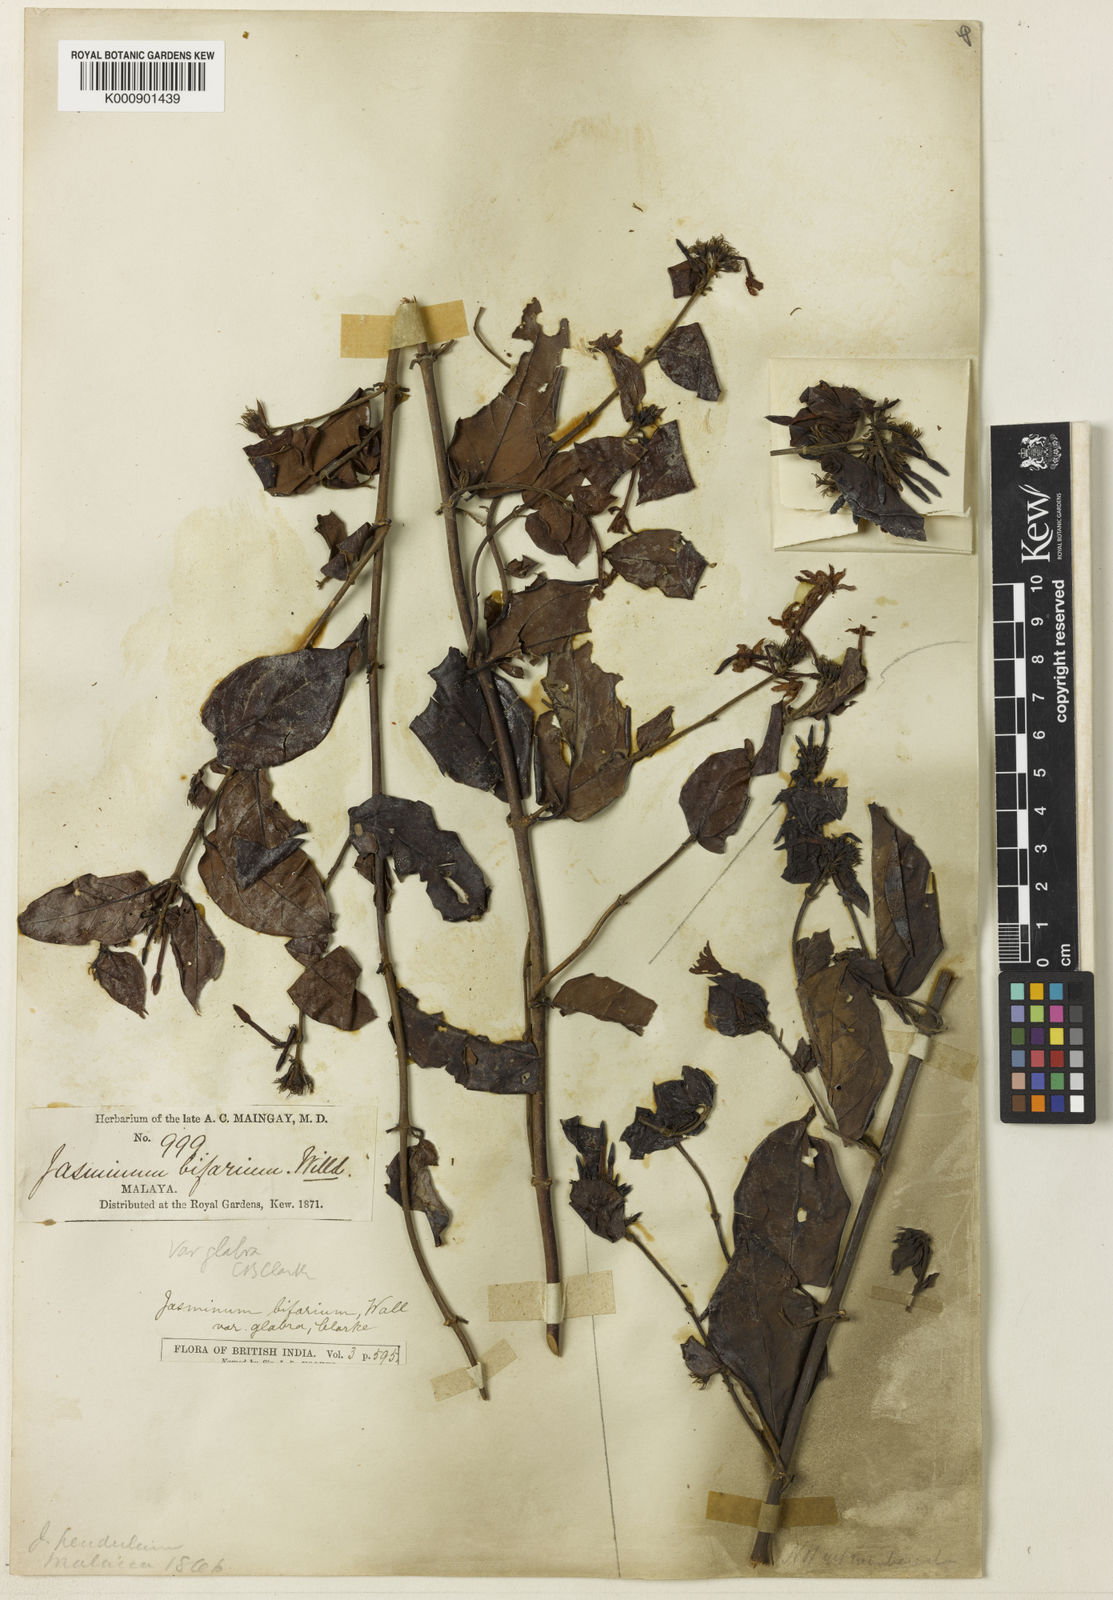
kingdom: Plantae
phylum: Tracheophyta
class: Magnoliopsida
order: Lamiales
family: Oleaceae
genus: Jasminum
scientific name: Jasminum elongatum
